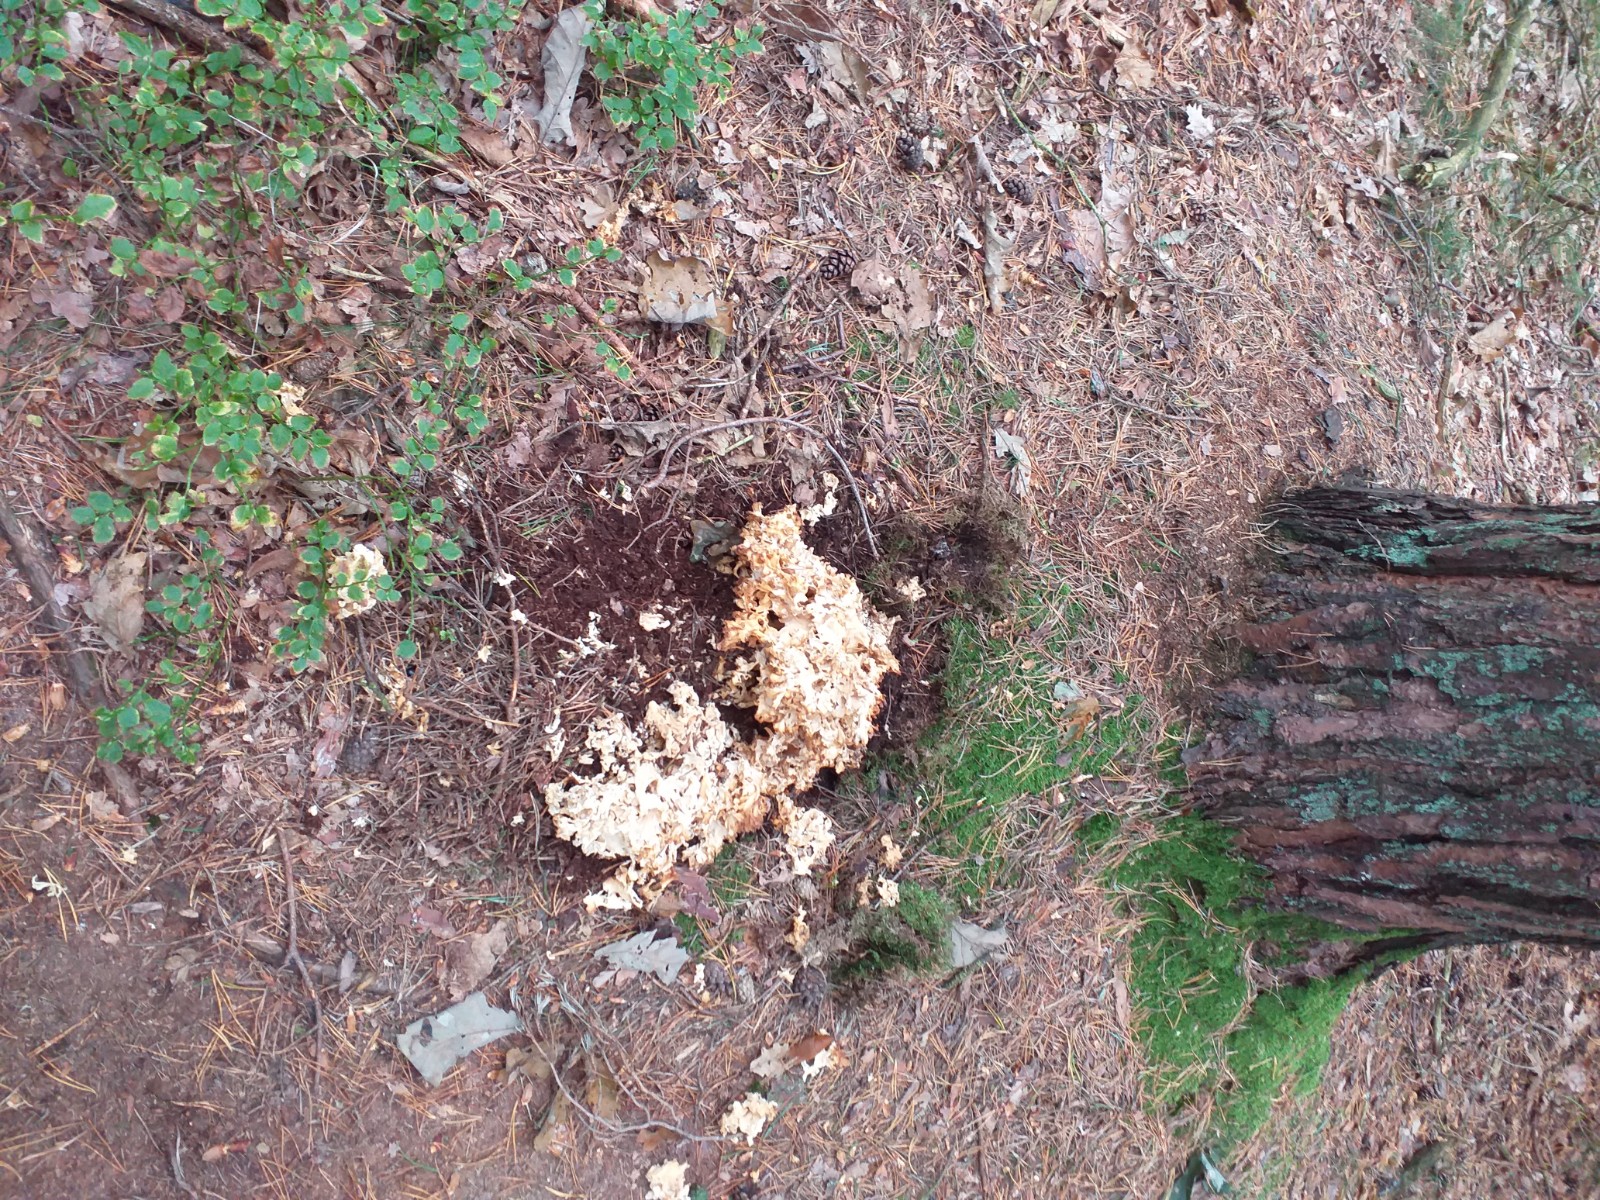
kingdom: Fungi
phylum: Basidiomycota
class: Agaricomycetes
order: Polyporales
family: Sparassidaceae
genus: Sparassis
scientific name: Sparassis crispa
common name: kruset blomkålssvamp
